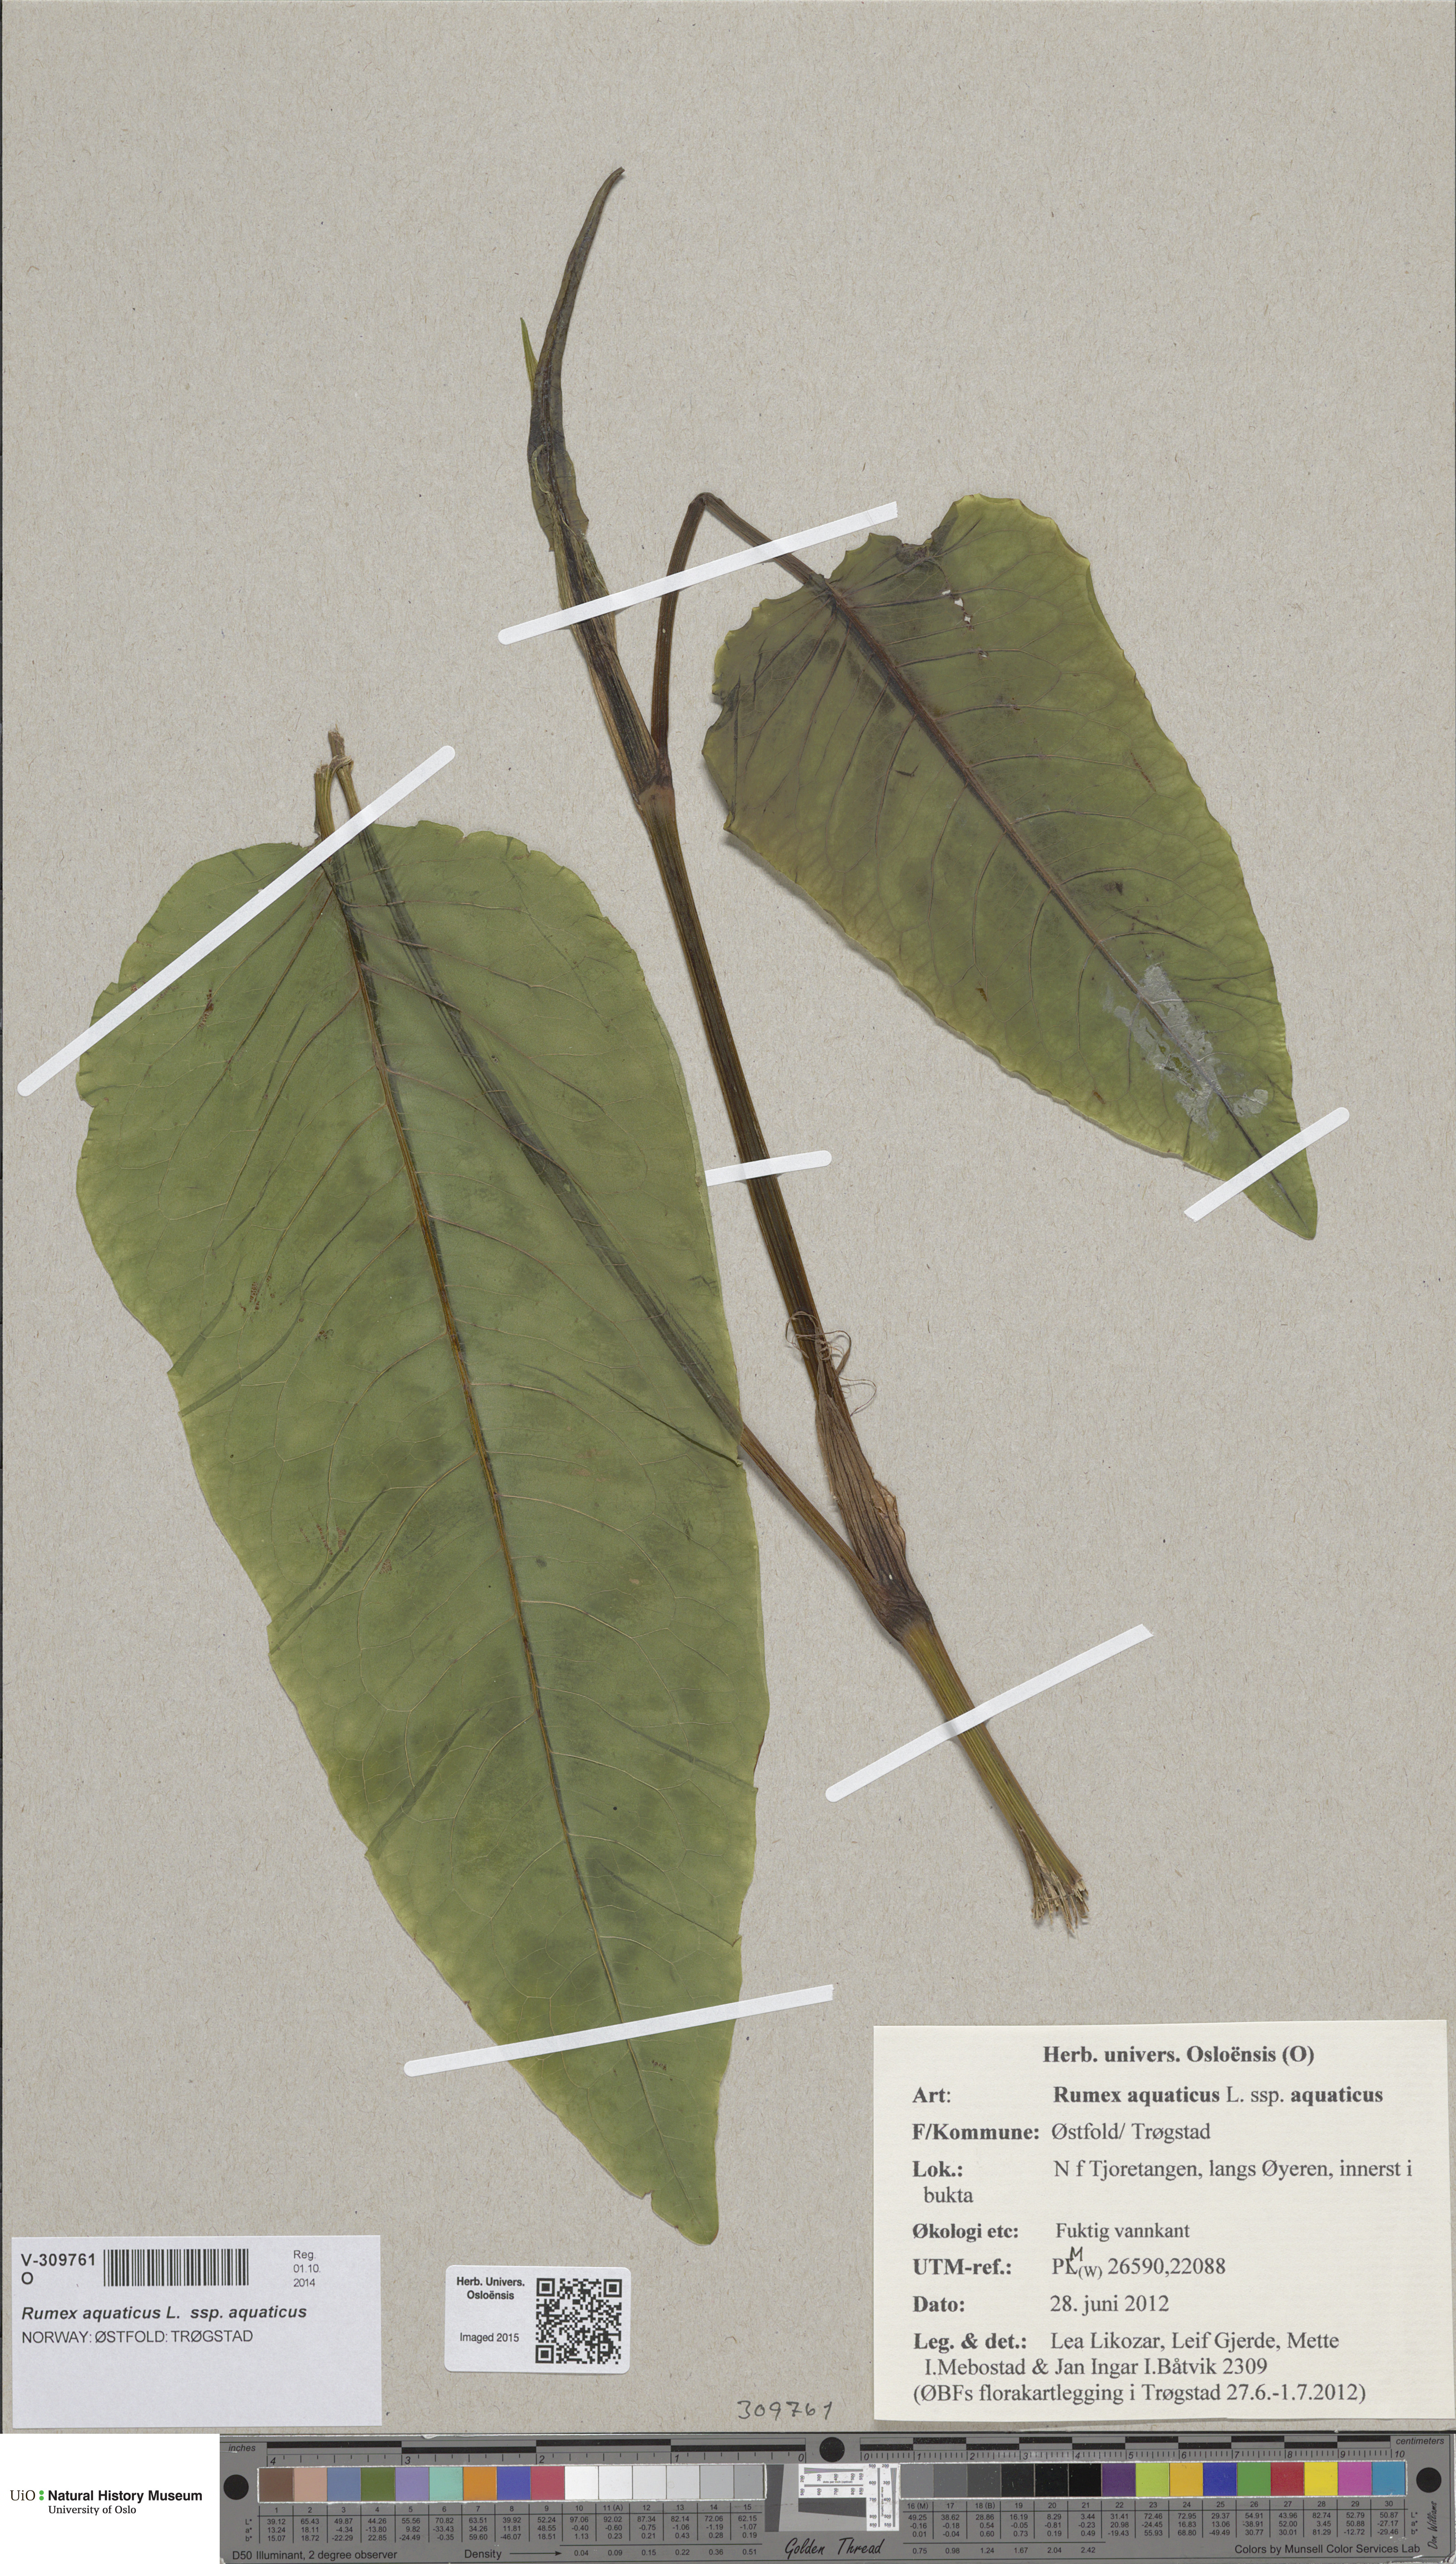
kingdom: Plantae
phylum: Tracheophyta
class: Magnoliopsida
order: Caryophyllales
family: Polygonaceae
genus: Rumex
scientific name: Rumex aquaticus
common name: Scottish dock
